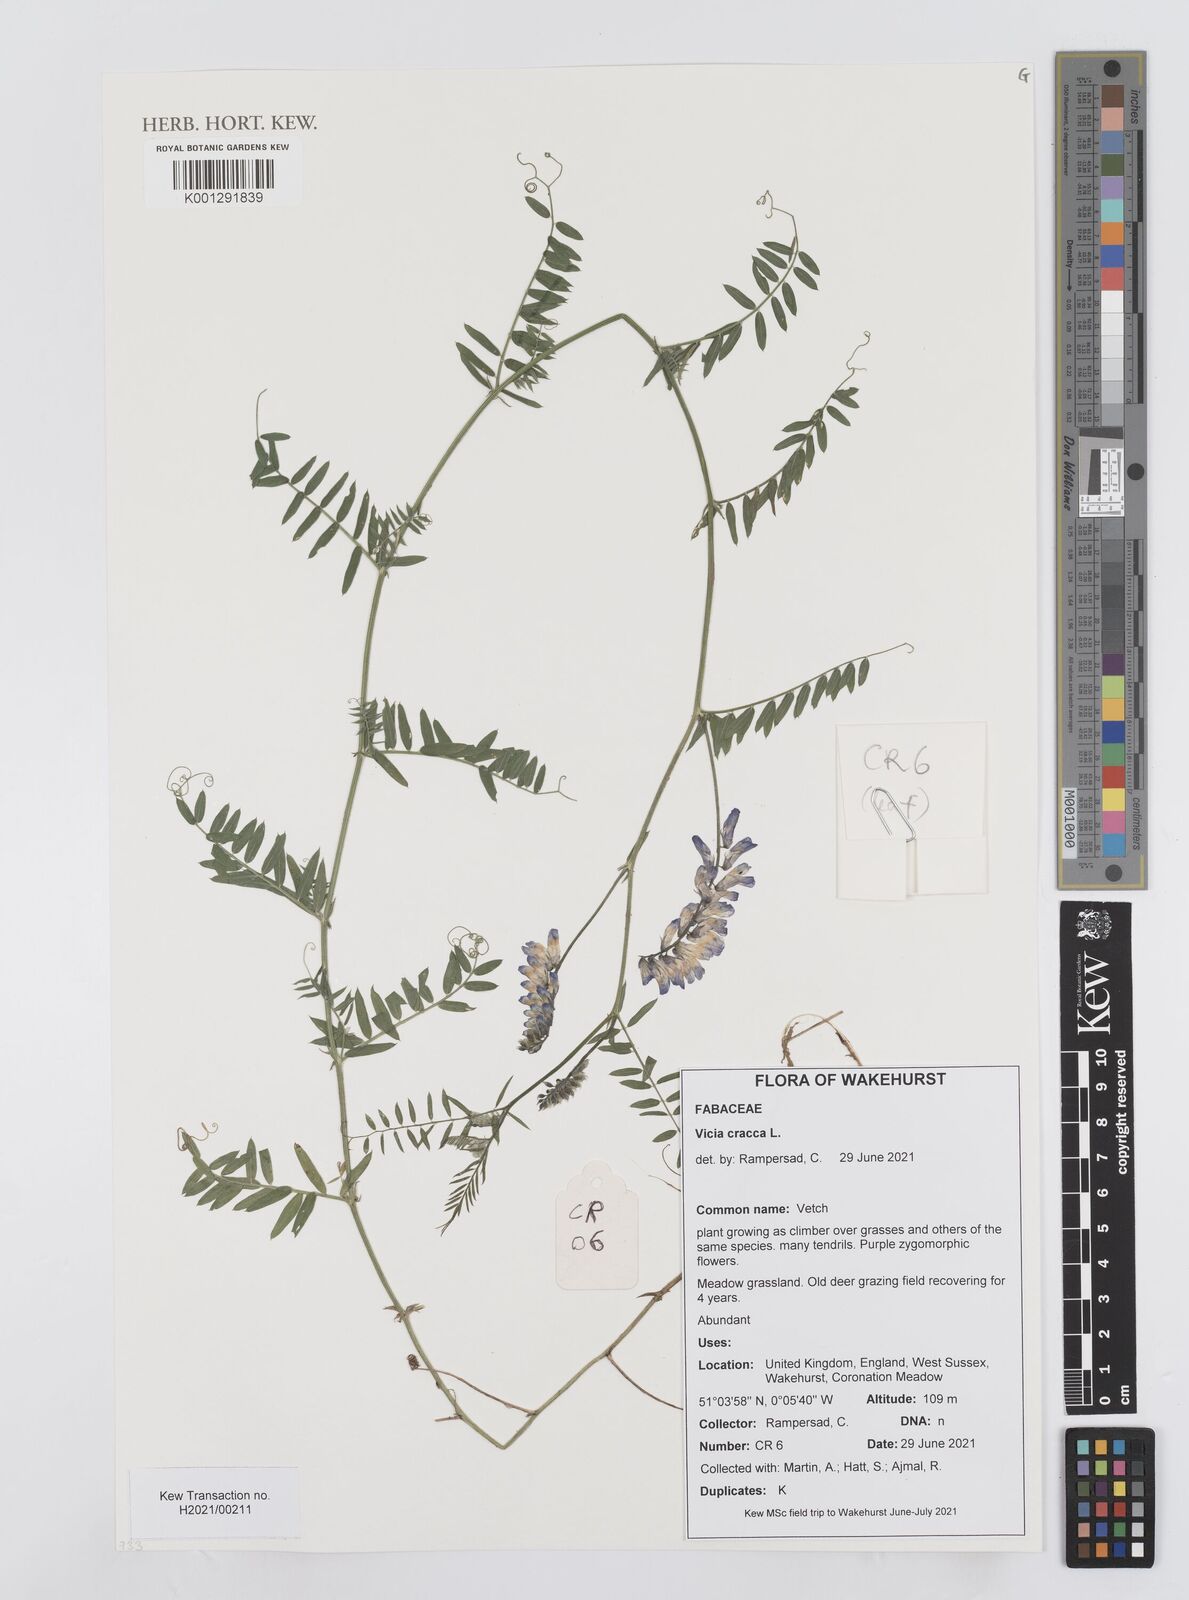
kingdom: Plantae
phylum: Tracheophyta
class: Magnoliopsida
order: Fabales
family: Fabaceae
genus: Vicia
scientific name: Vicia cracca
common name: Bird vetch
